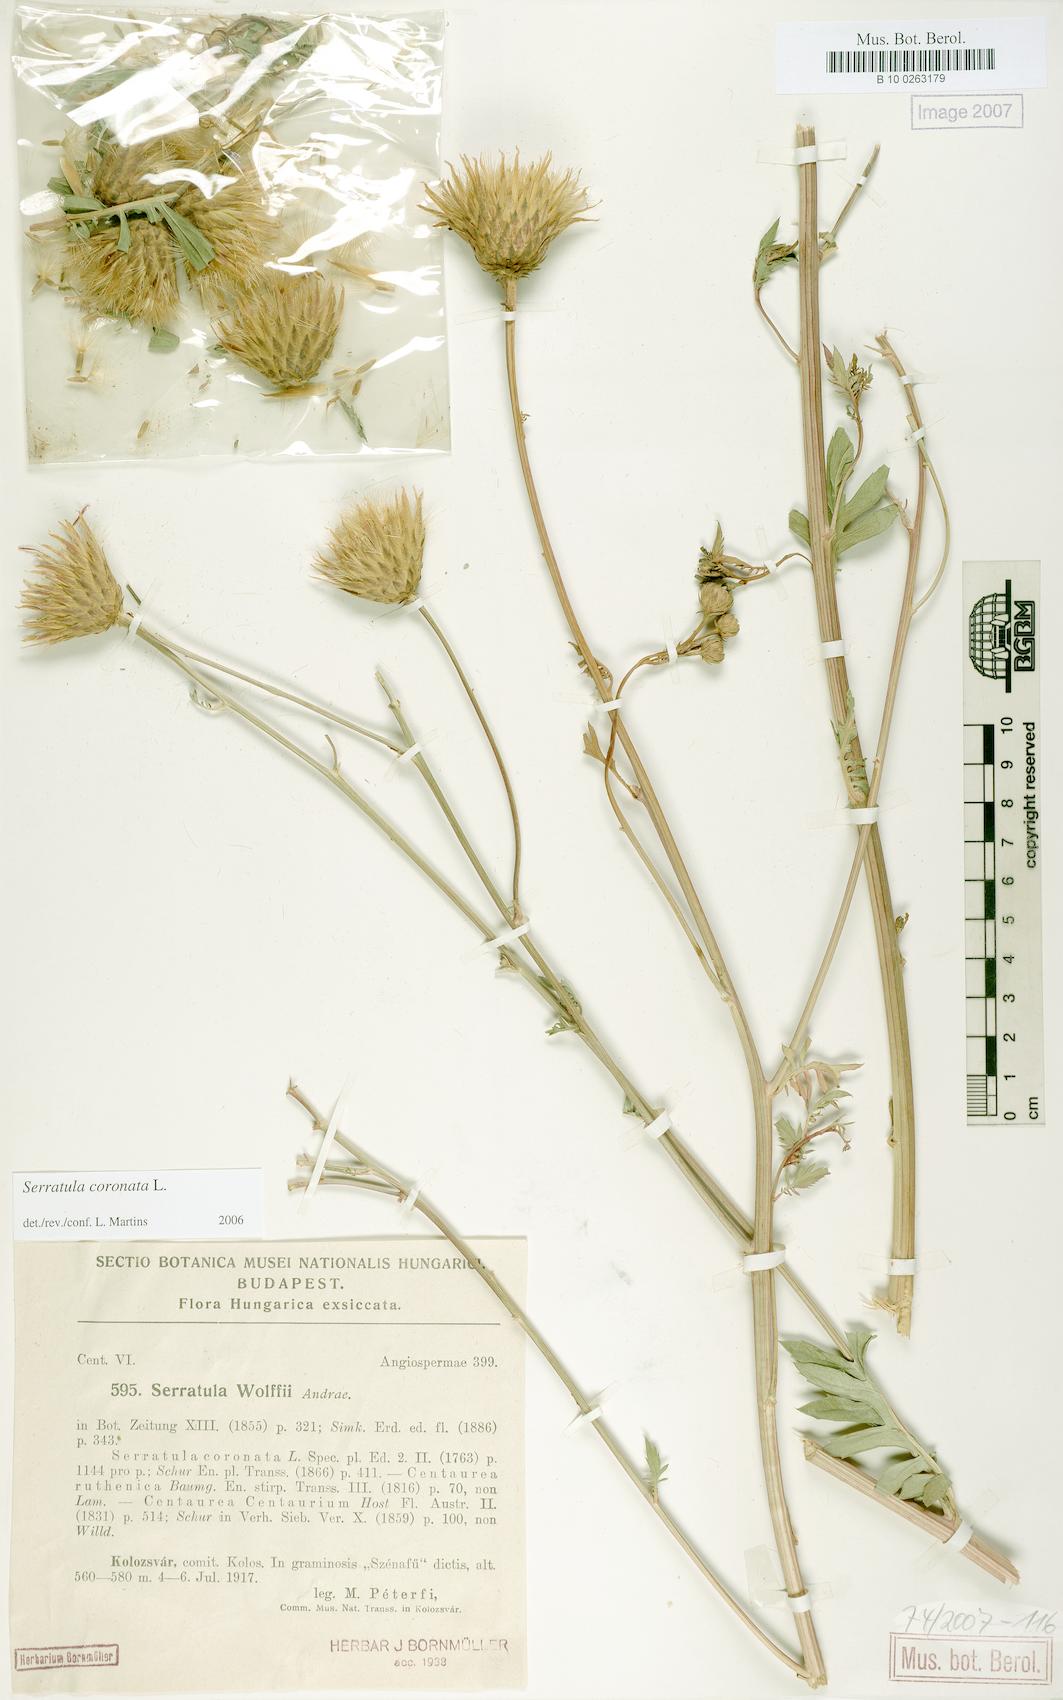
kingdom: Plantae
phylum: Tracheophyta
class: Magnoliopsida
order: Asterales
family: Asteraceae
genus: Serratula
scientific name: Serratula coronata
